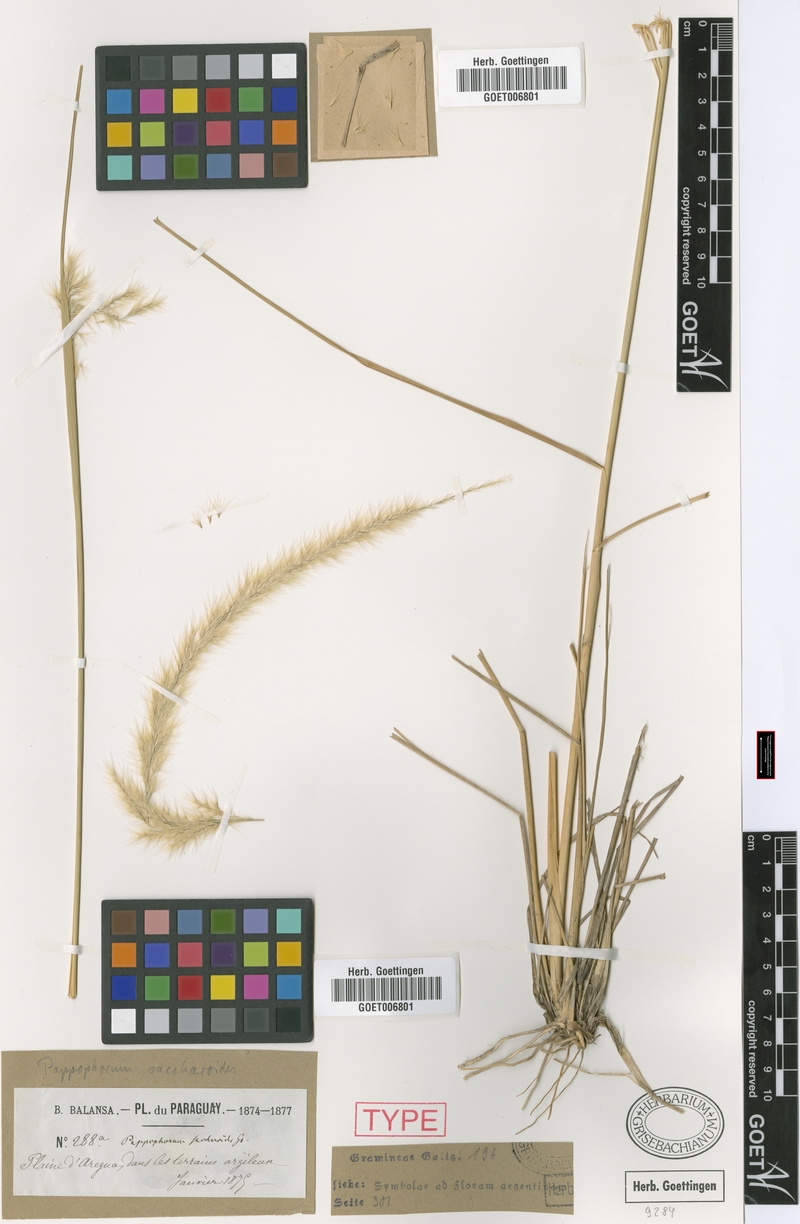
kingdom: Plantae
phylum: Tracheophyta
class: Liliopsida
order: Poales
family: Poaceae
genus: Pappophorum
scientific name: Pappophorum pappiferum
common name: Crabgrass
